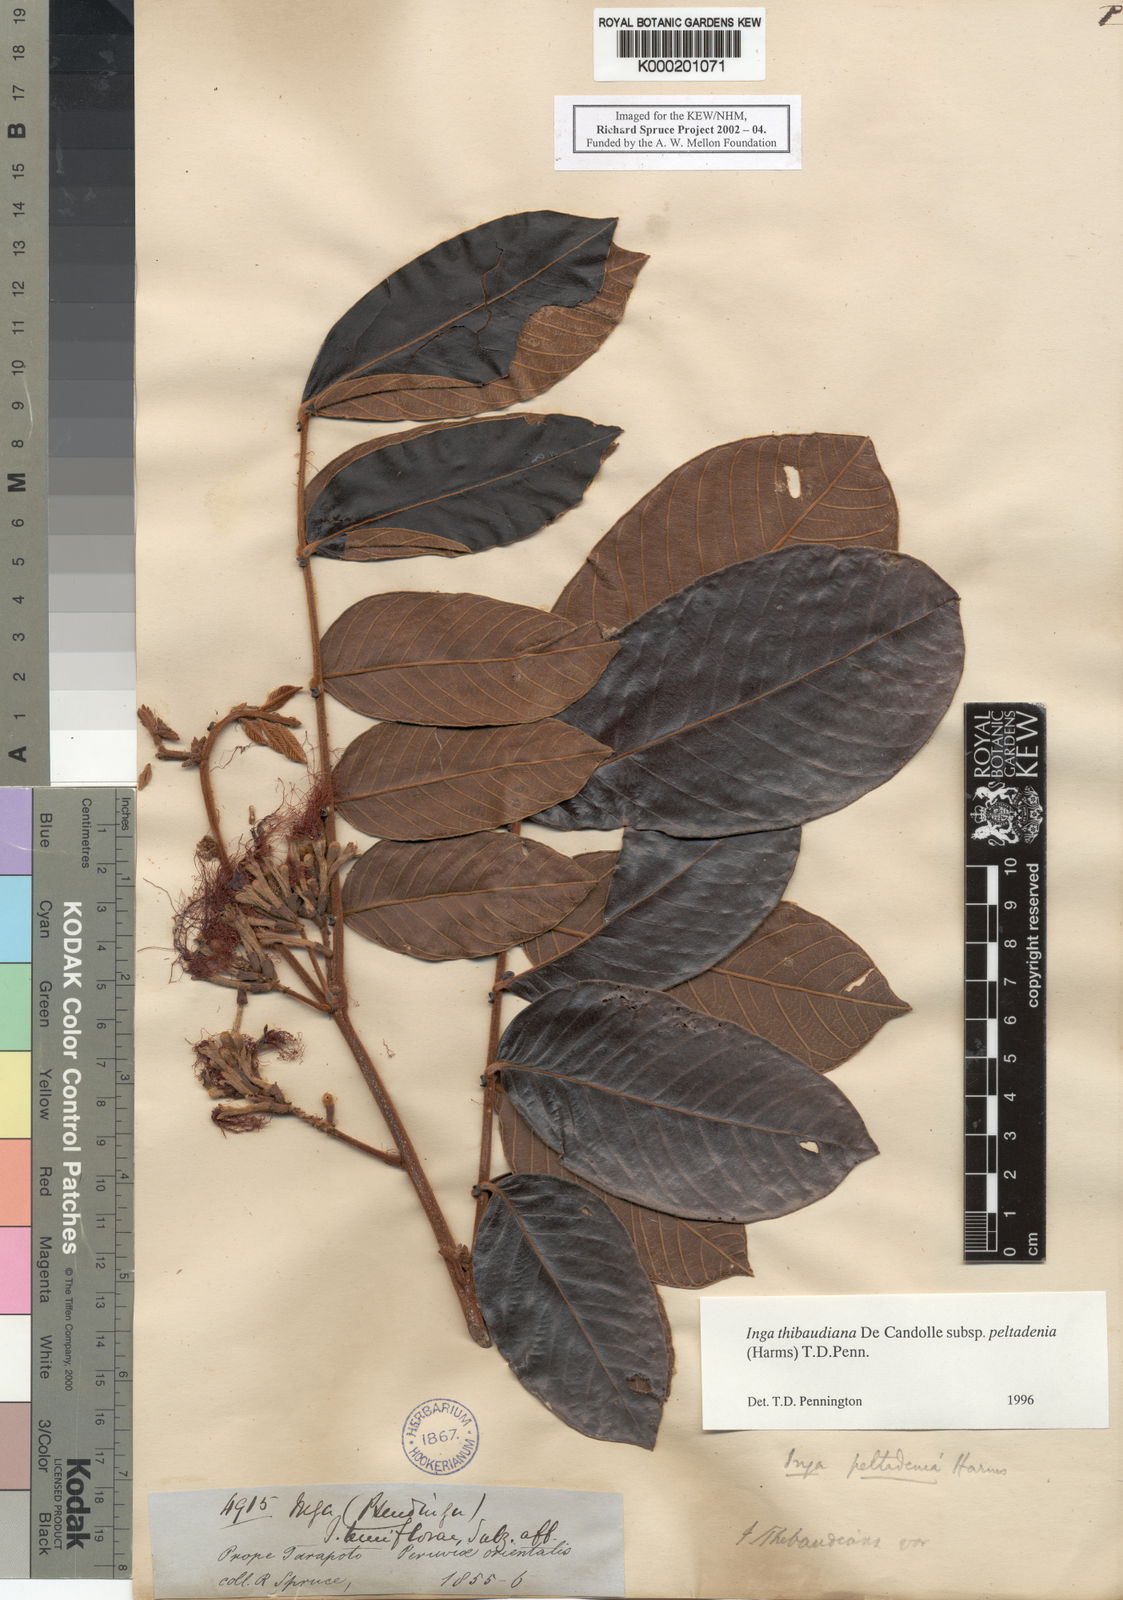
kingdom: Plantae
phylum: Tracheophyta
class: Magnoliopsida
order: Fabales
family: Fabaceae
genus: Inga
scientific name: Inga thibaudiana
